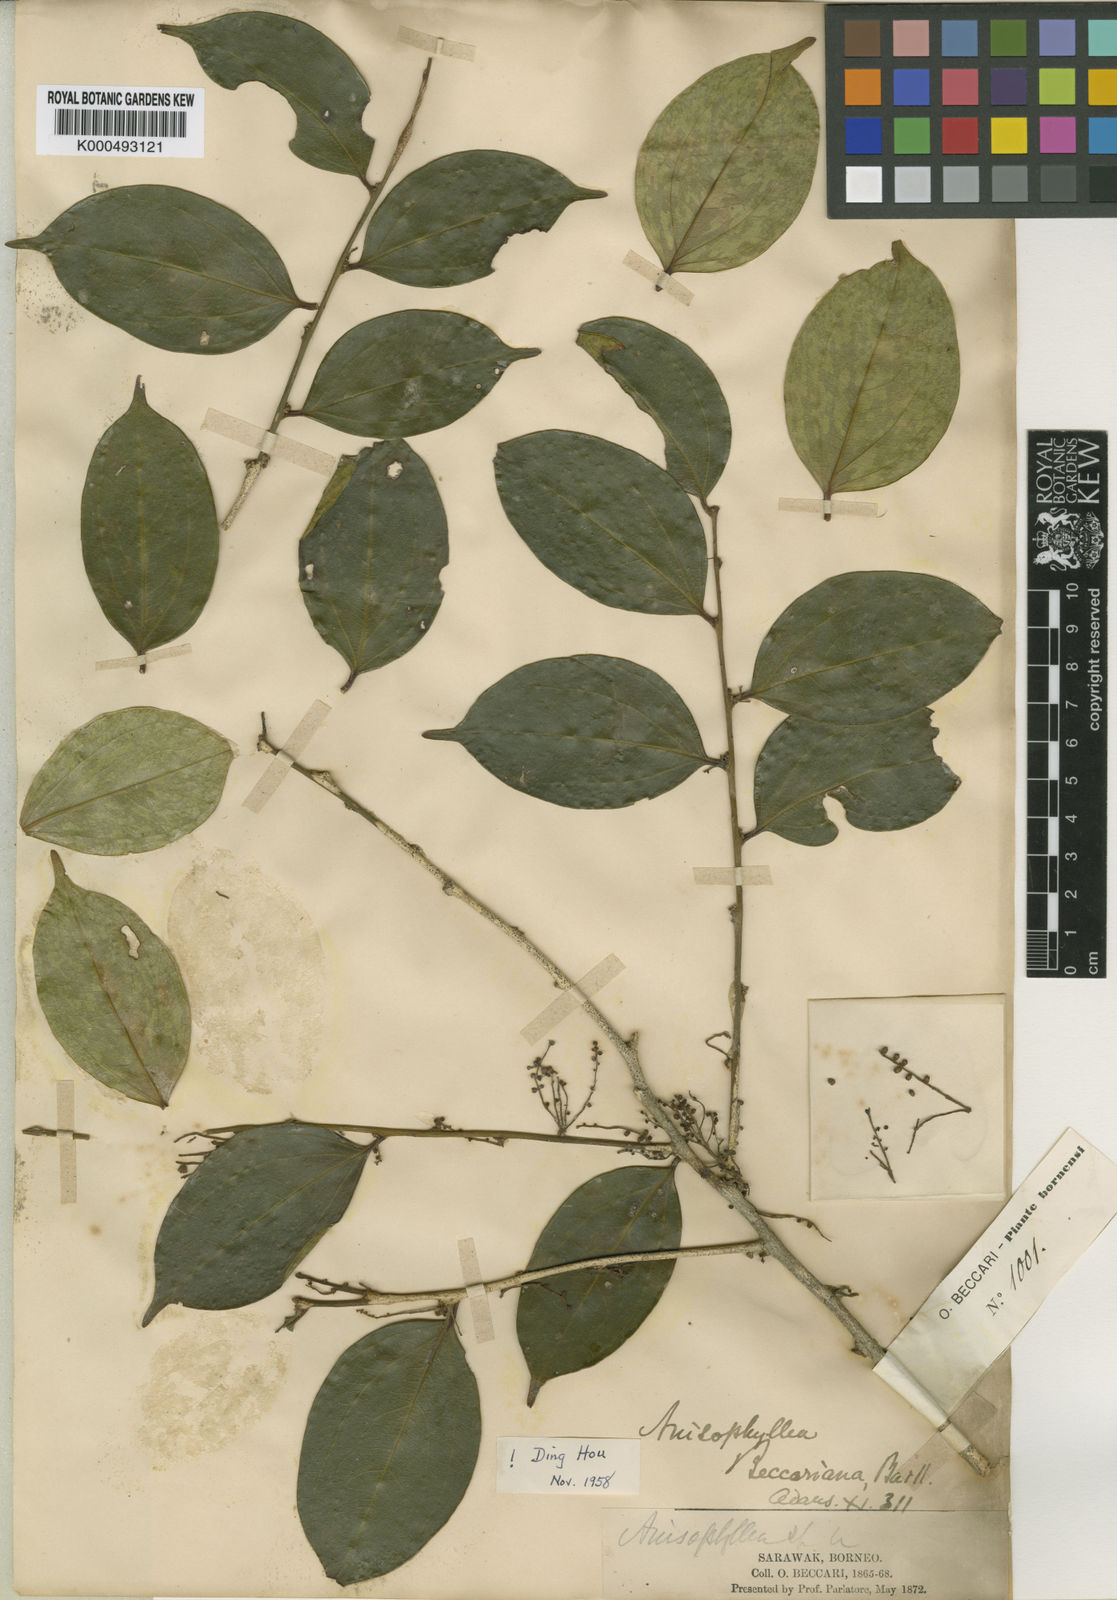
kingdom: Plantae
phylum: Tracheophyta
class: Magnoliopsida
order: Cucurbitales
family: Anisophylleaceae
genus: Anisophyllea
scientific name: Anisophyllea beccariana
